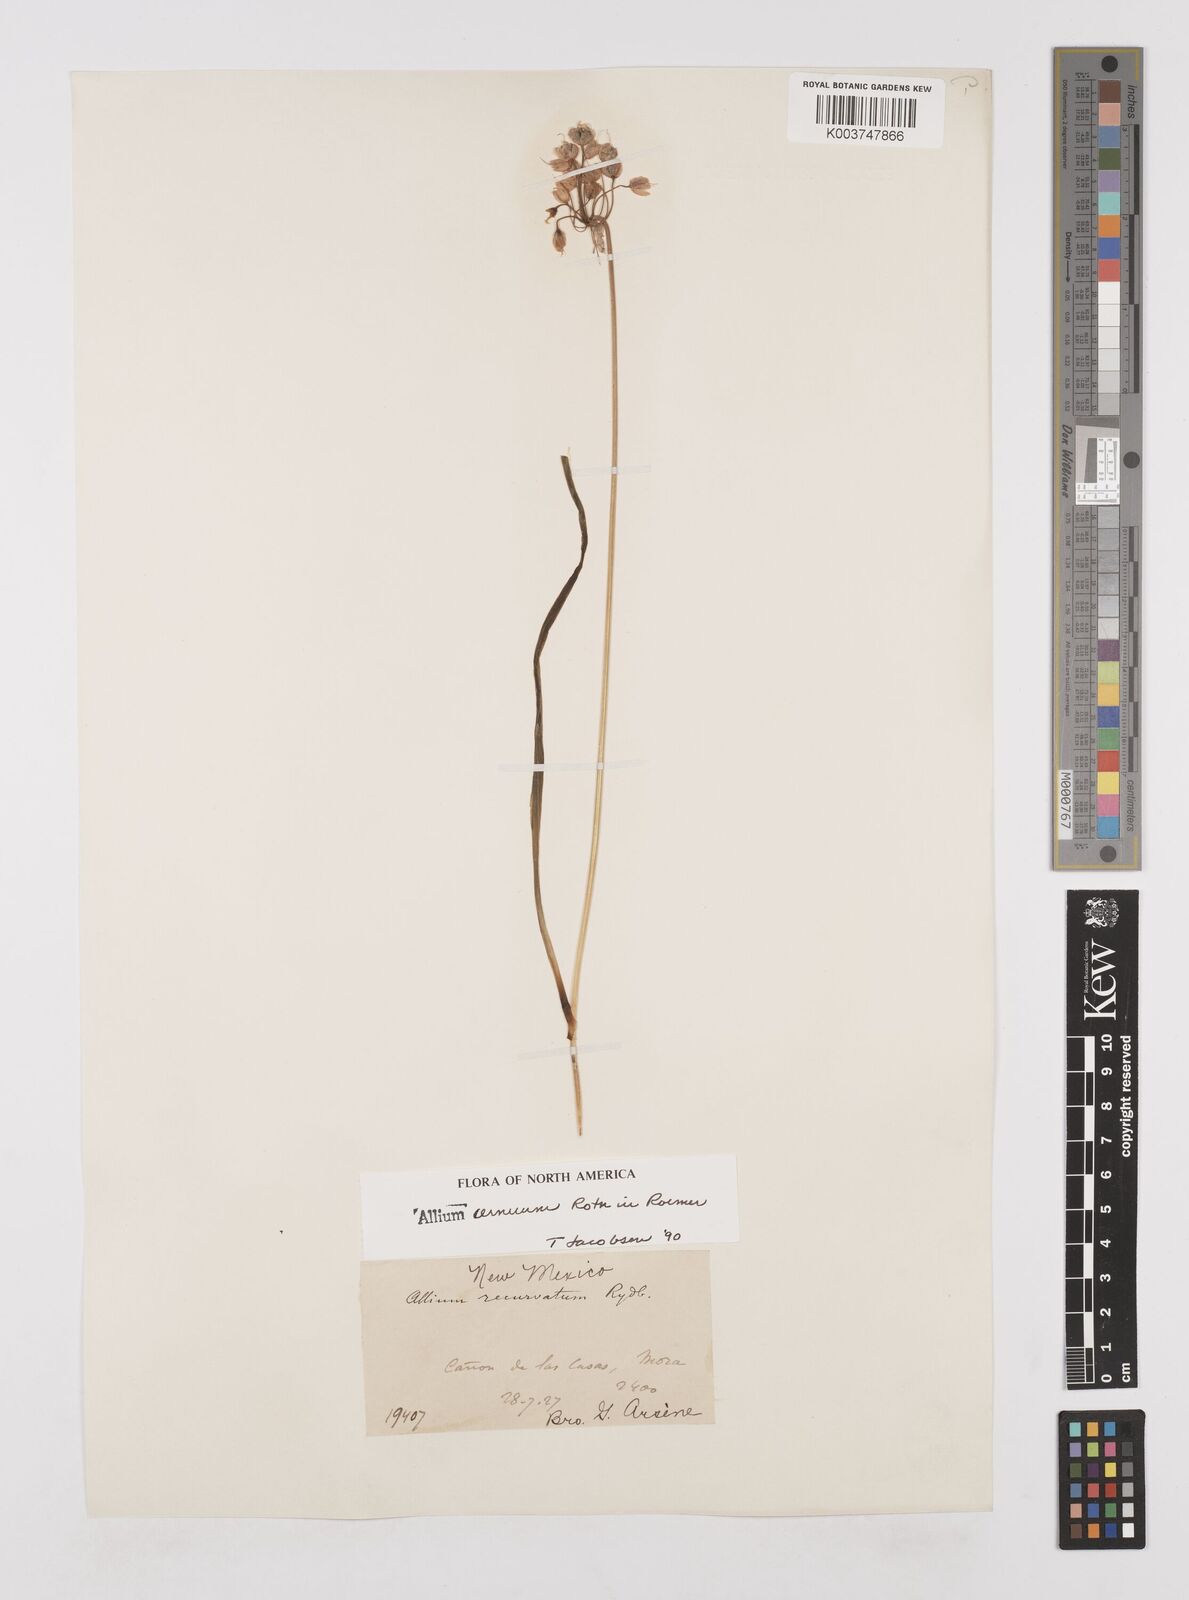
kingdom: Plantae
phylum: Tracheophyta
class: Liliopsida
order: Asparagales
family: Amaryllidaceae
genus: Allium
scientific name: Allium cernuum
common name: Nodding onion
